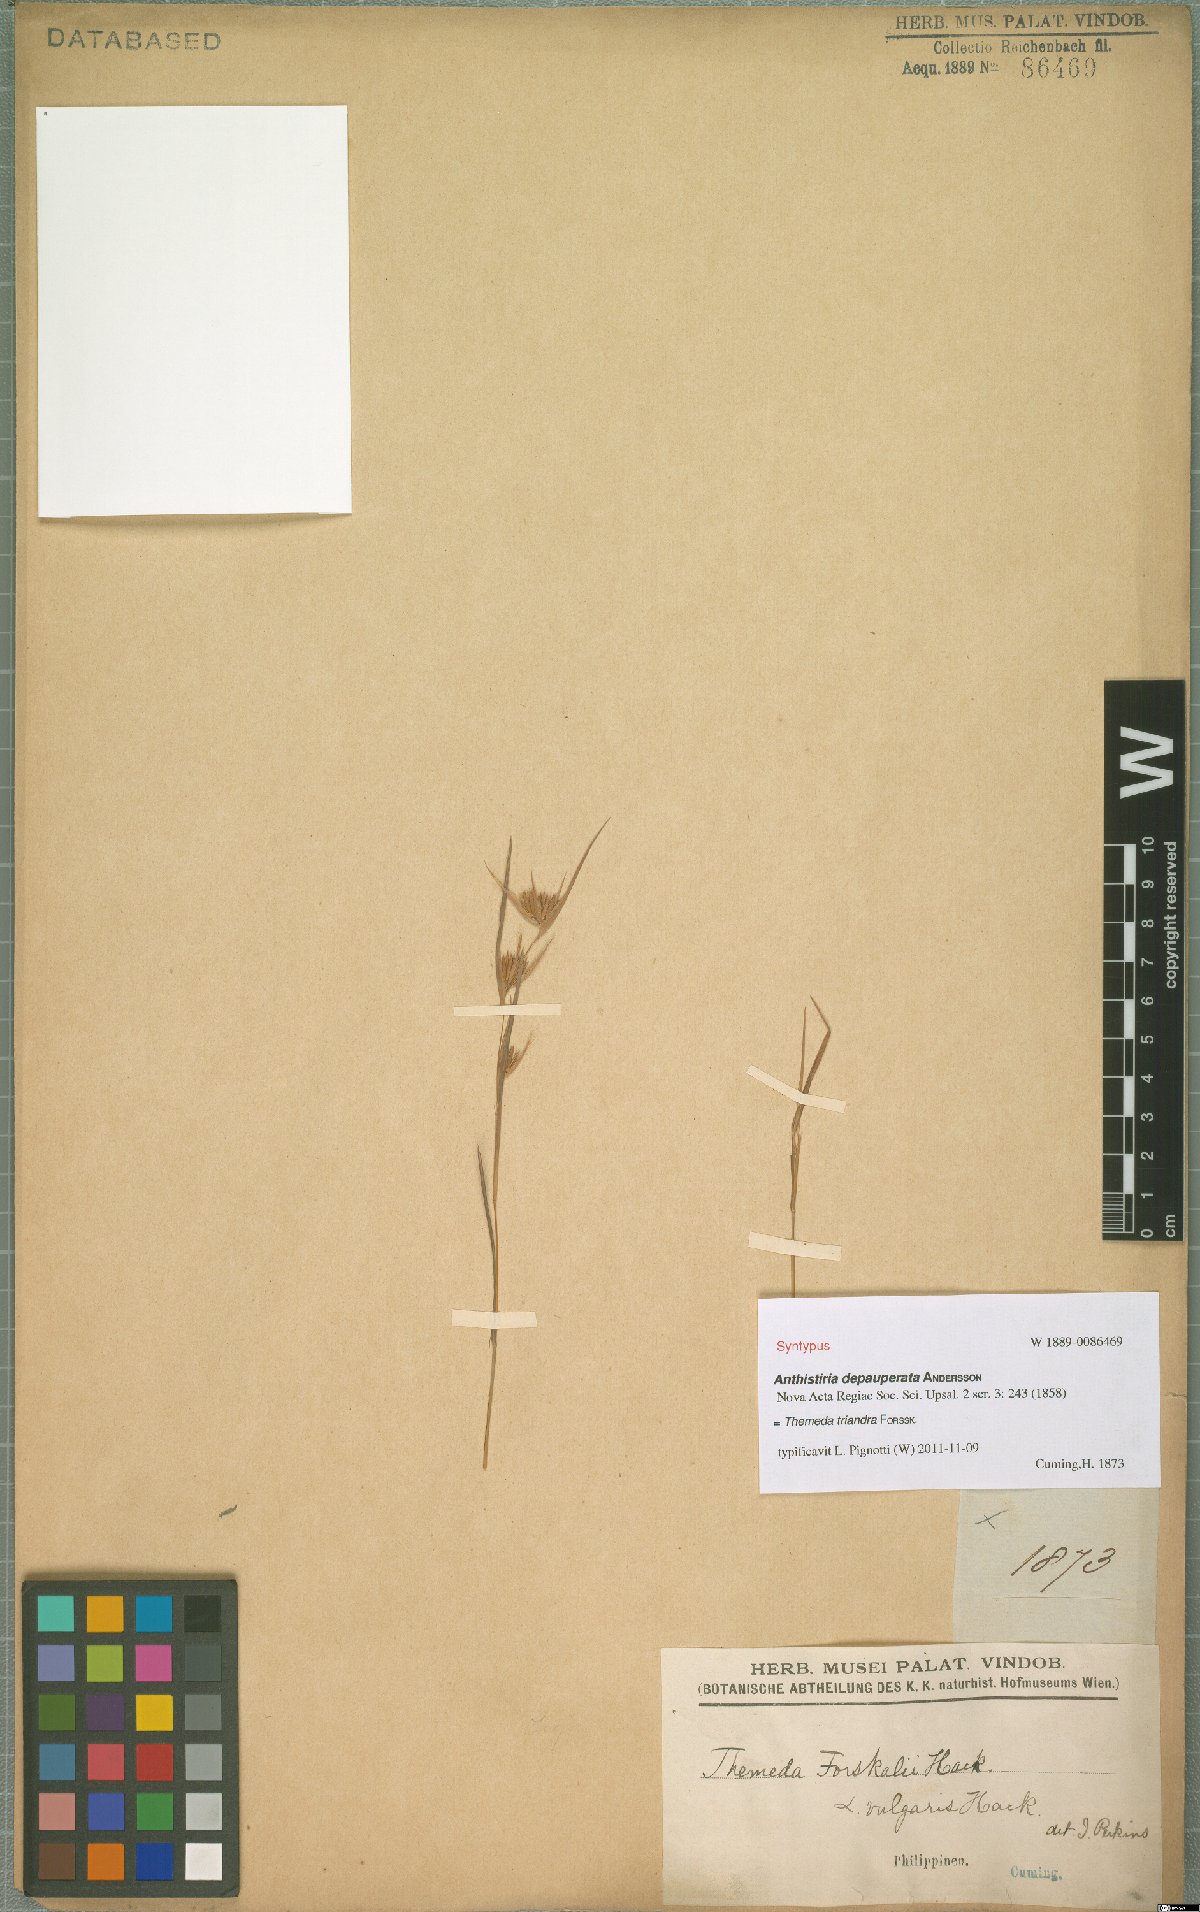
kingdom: Plantae
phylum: Tracheophyta
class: Liliopsida
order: Poales
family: Poaceae
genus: Themeda
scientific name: Themeda triandra
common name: Kangaroo grass
